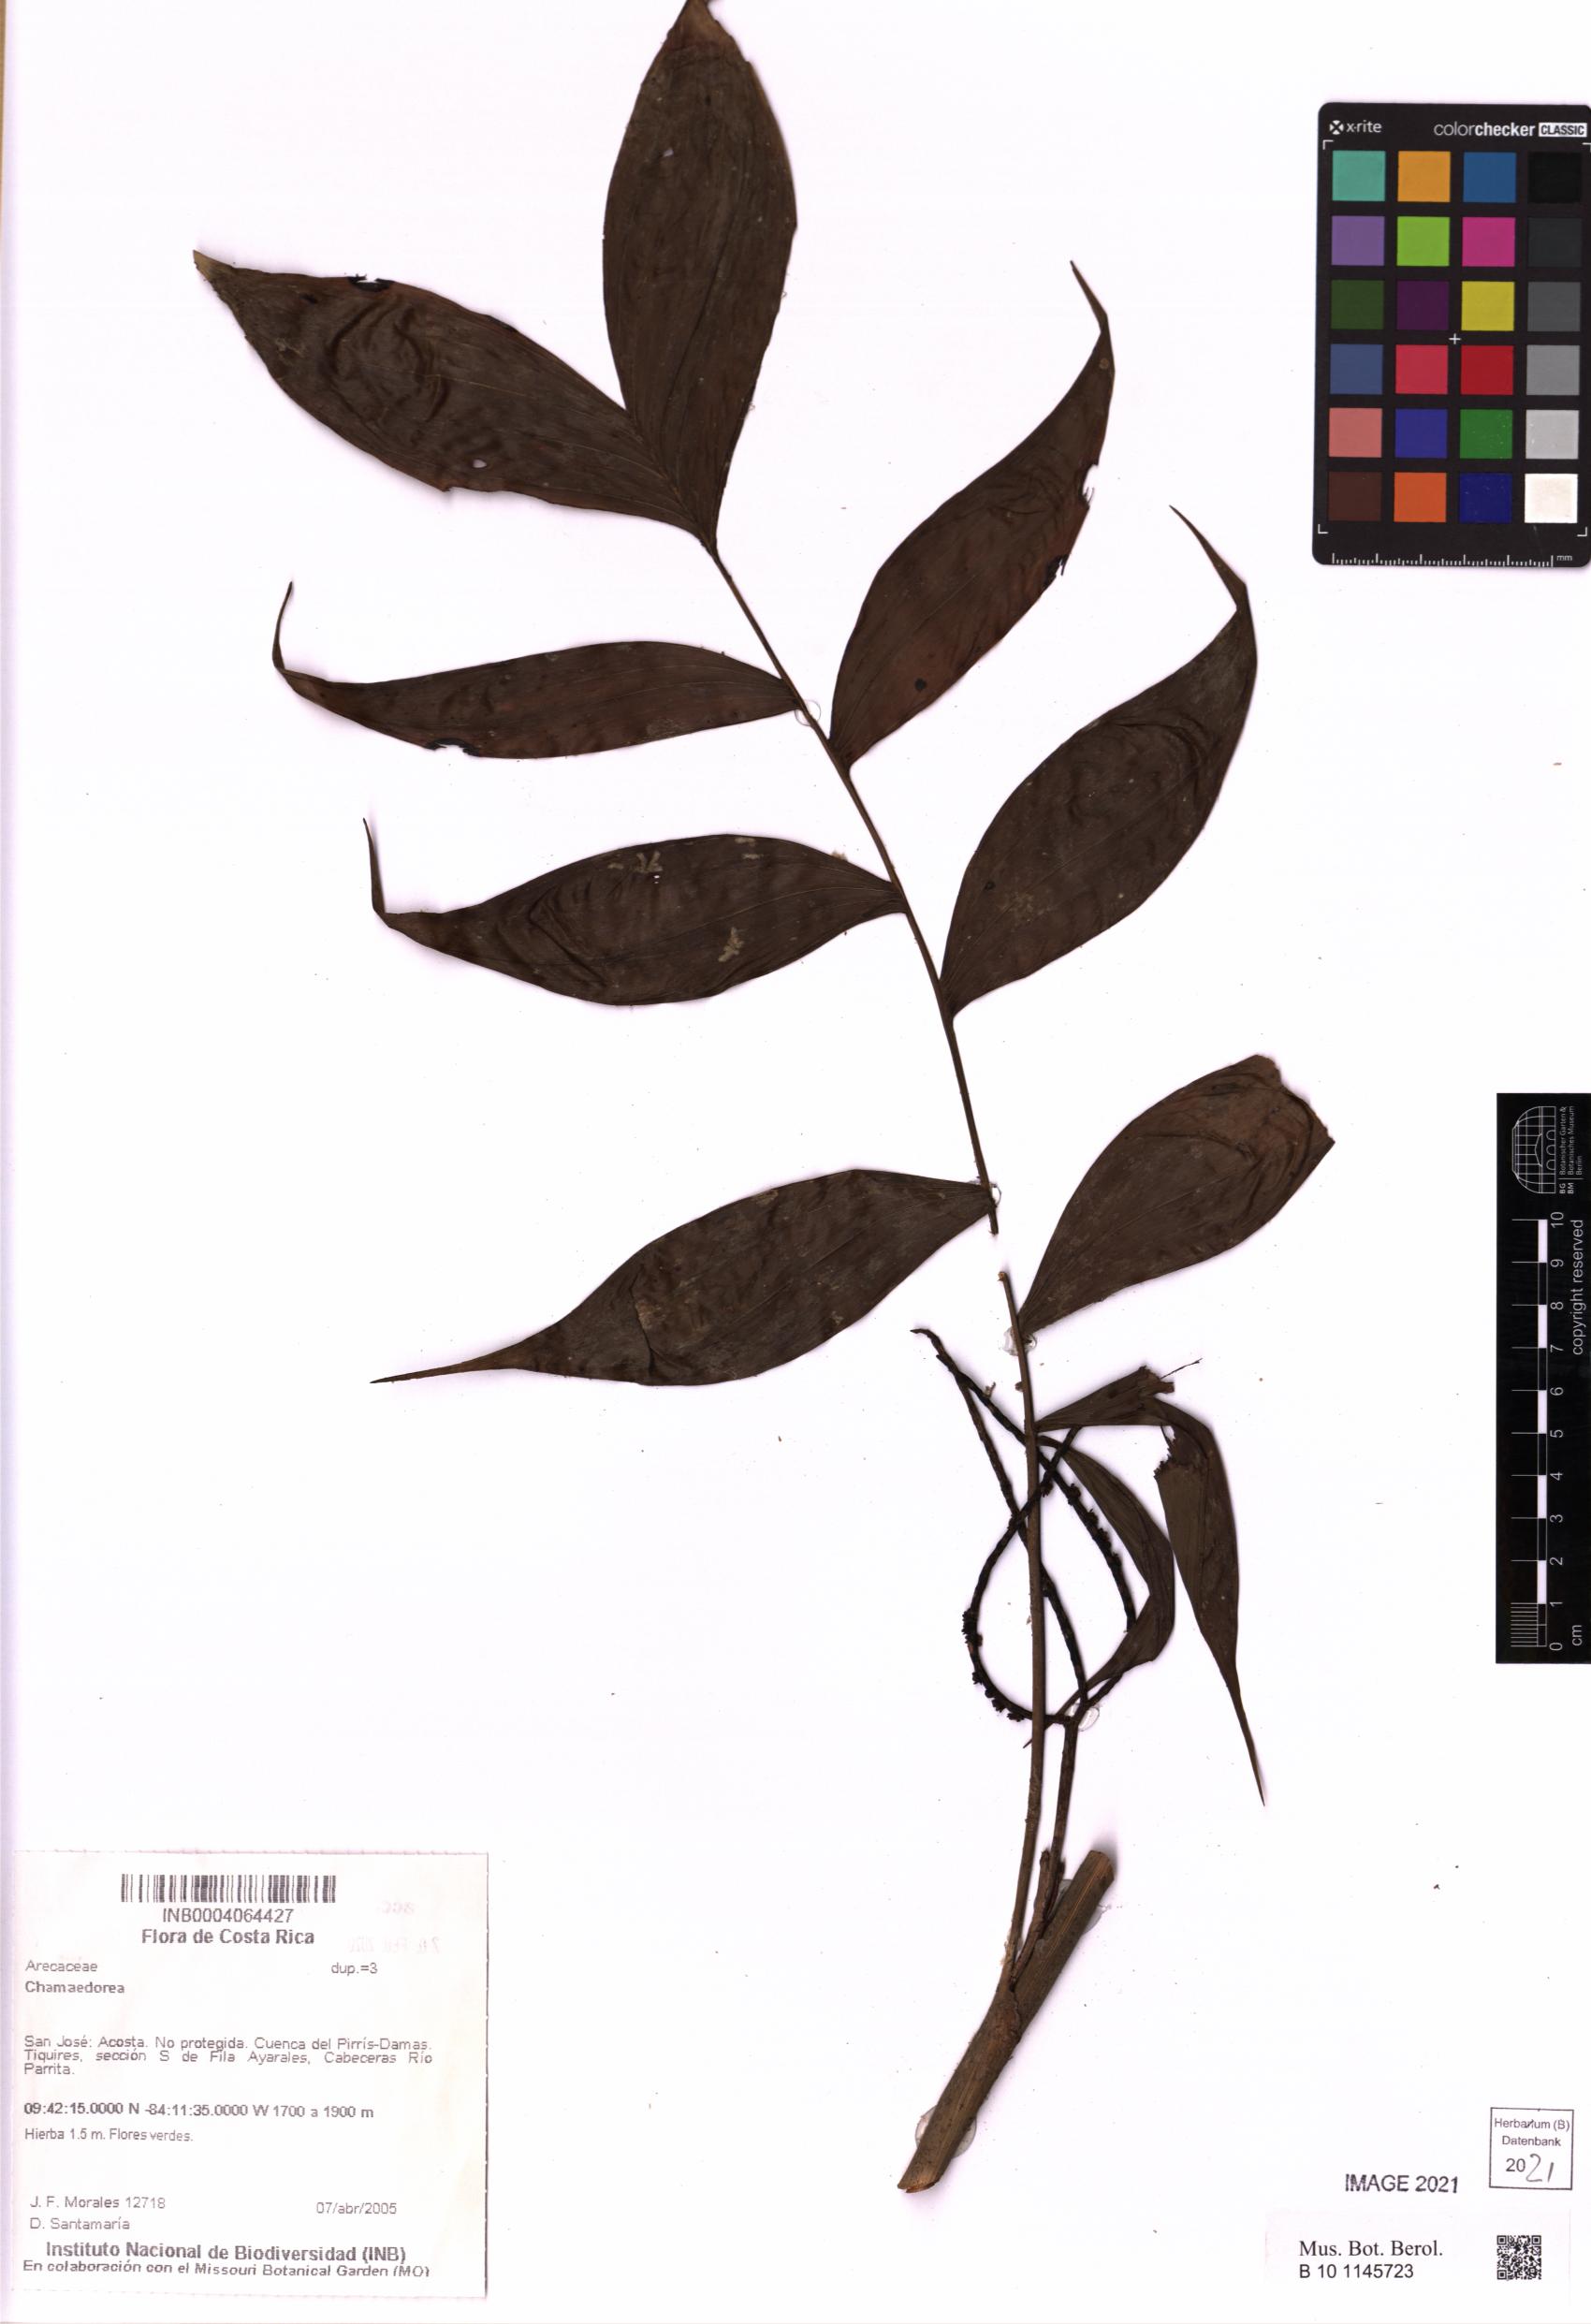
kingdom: Plantae
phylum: Tracheophyta
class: Liliopsida
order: Arecales
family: Arecaceae
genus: Chamaedorea
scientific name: Chamaedorea
